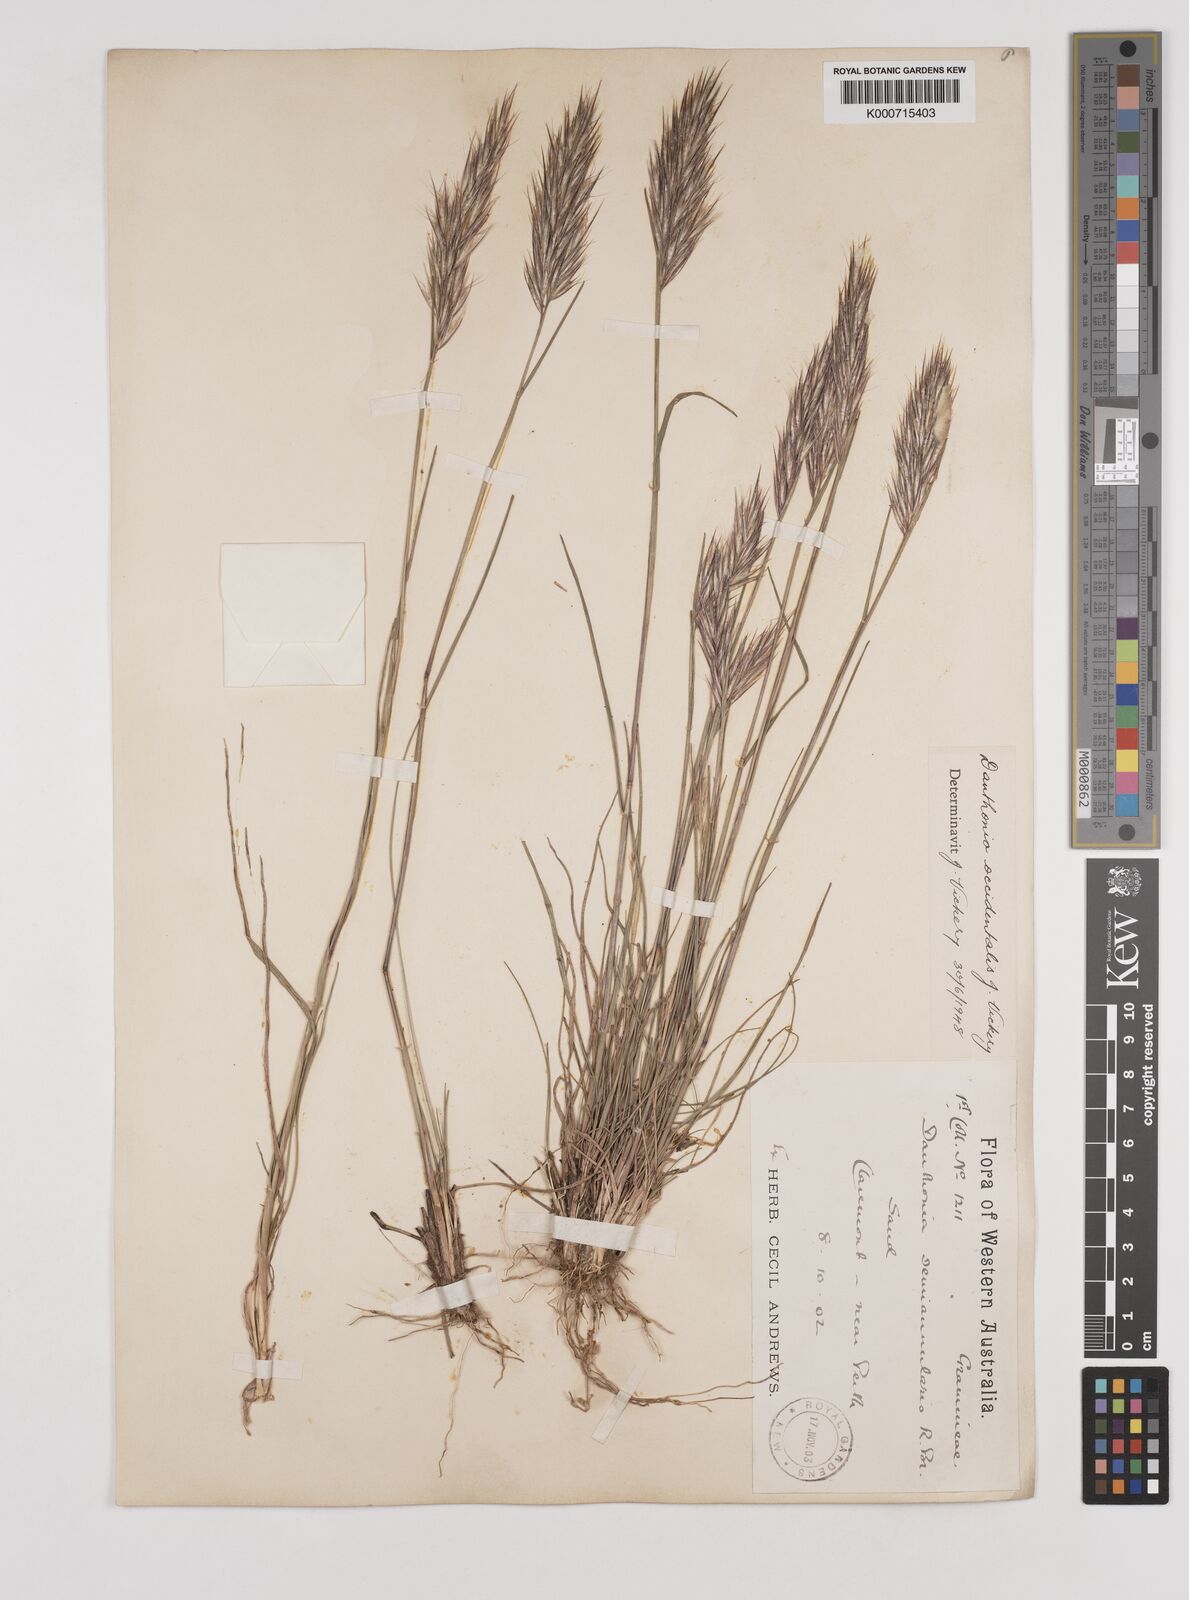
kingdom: Plantae
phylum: Tracheophyta
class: Liliopsida
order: Poales
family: Poaceae
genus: Rytidosperma
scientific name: Rytidosperma occidentale
